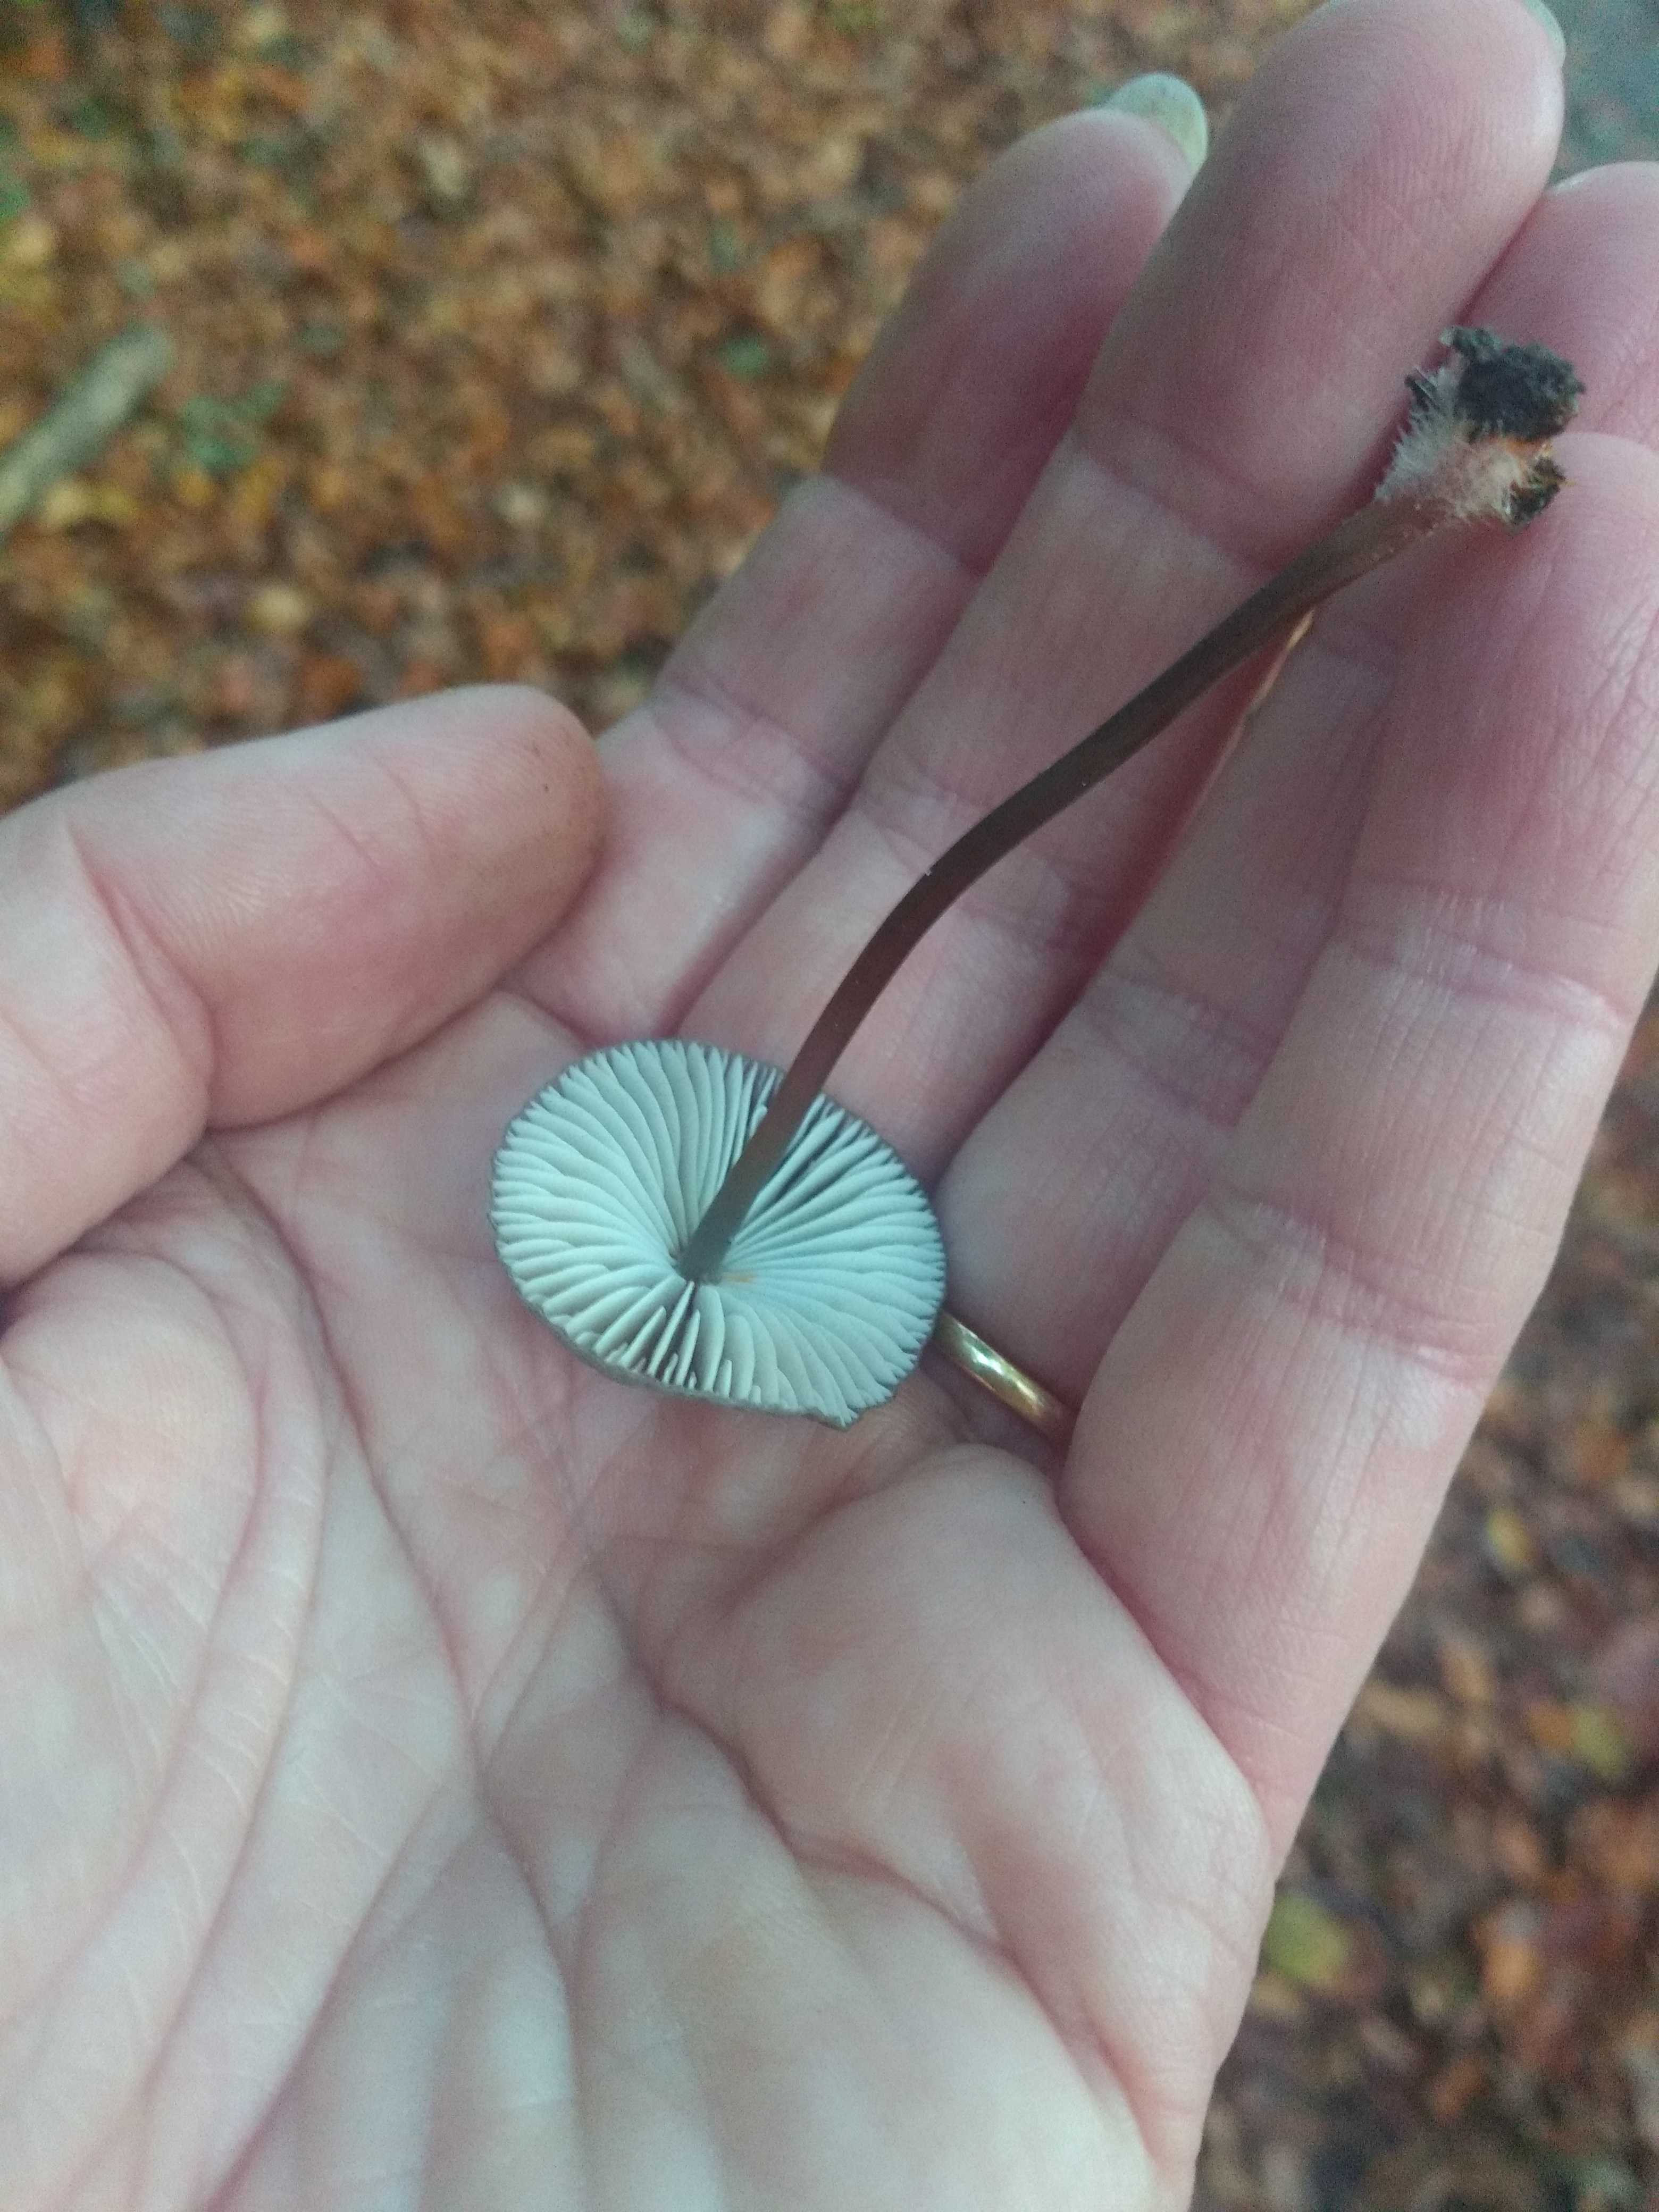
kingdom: Fungi
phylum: Basidiomycota
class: Agaricomycetes
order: Agaricales
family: Mycenaceae
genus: Mycena
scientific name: Mycena crocata
